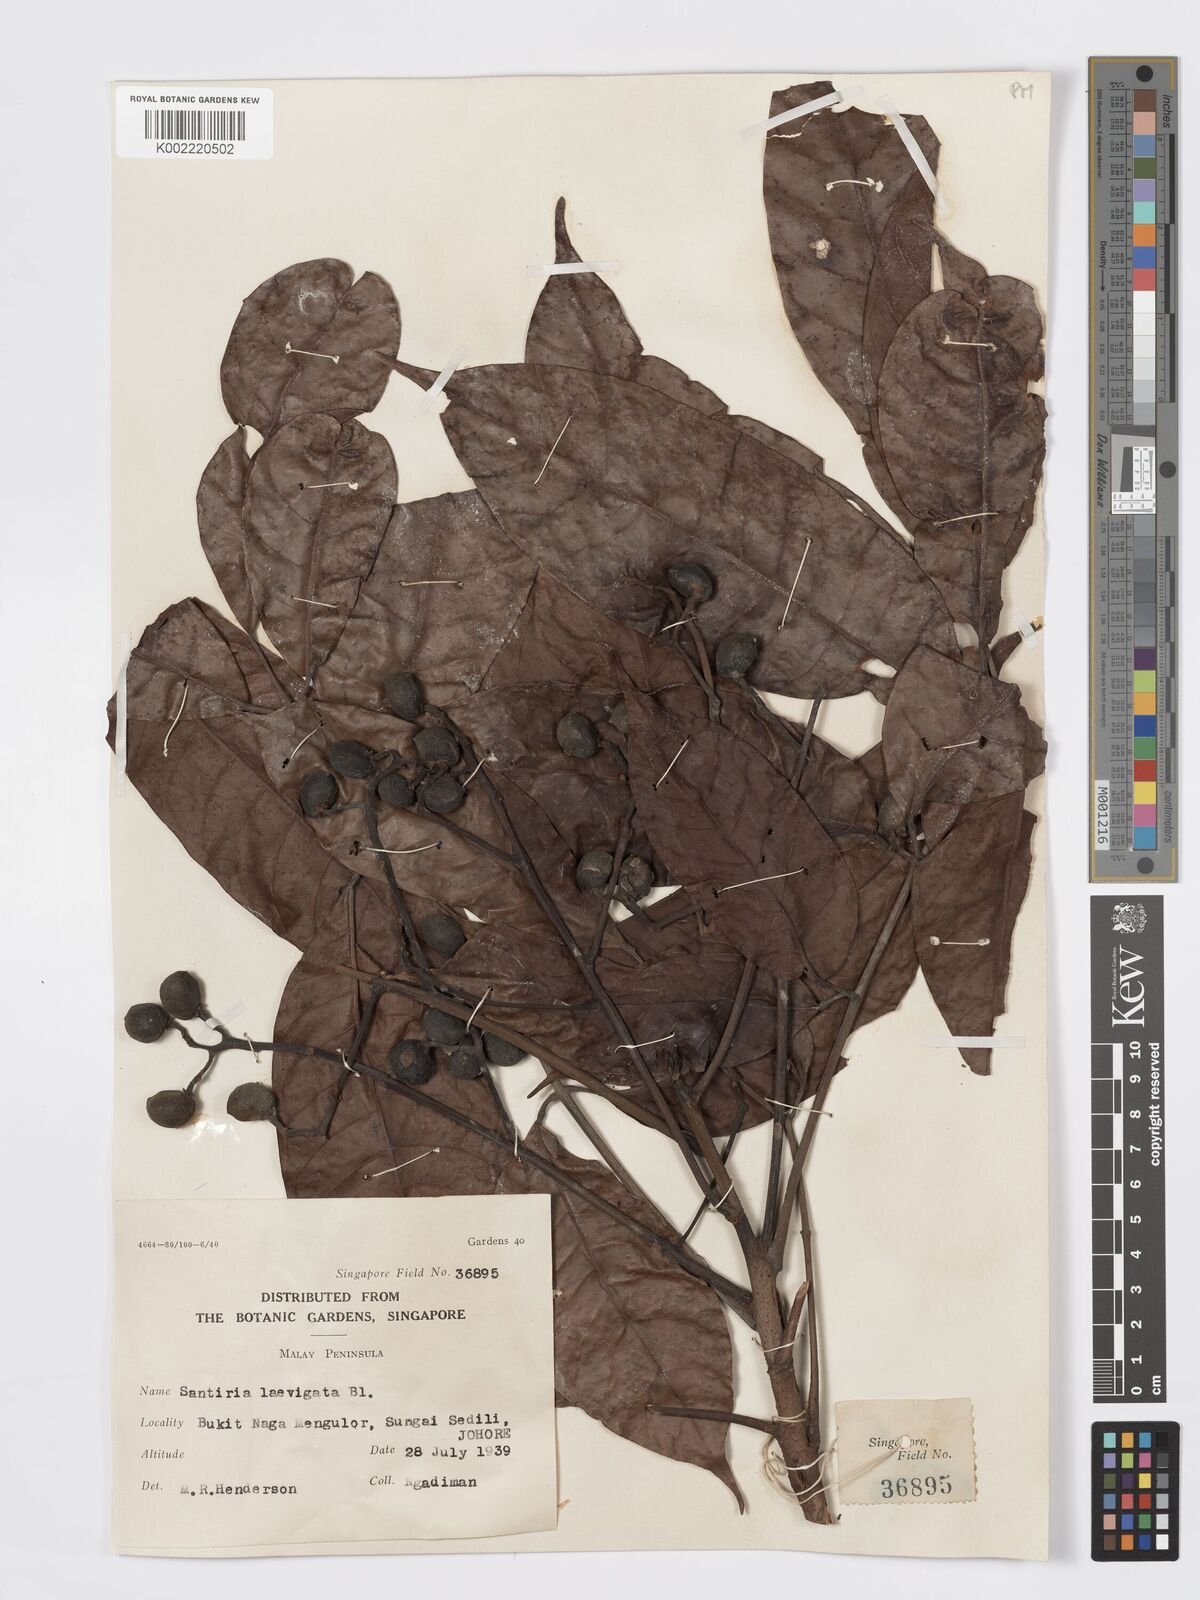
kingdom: Plantae
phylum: Tracheophyta
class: Magnoliopsida
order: Sapindales
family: Burseraceae
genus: Santiria
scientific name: Santiria laevigata
